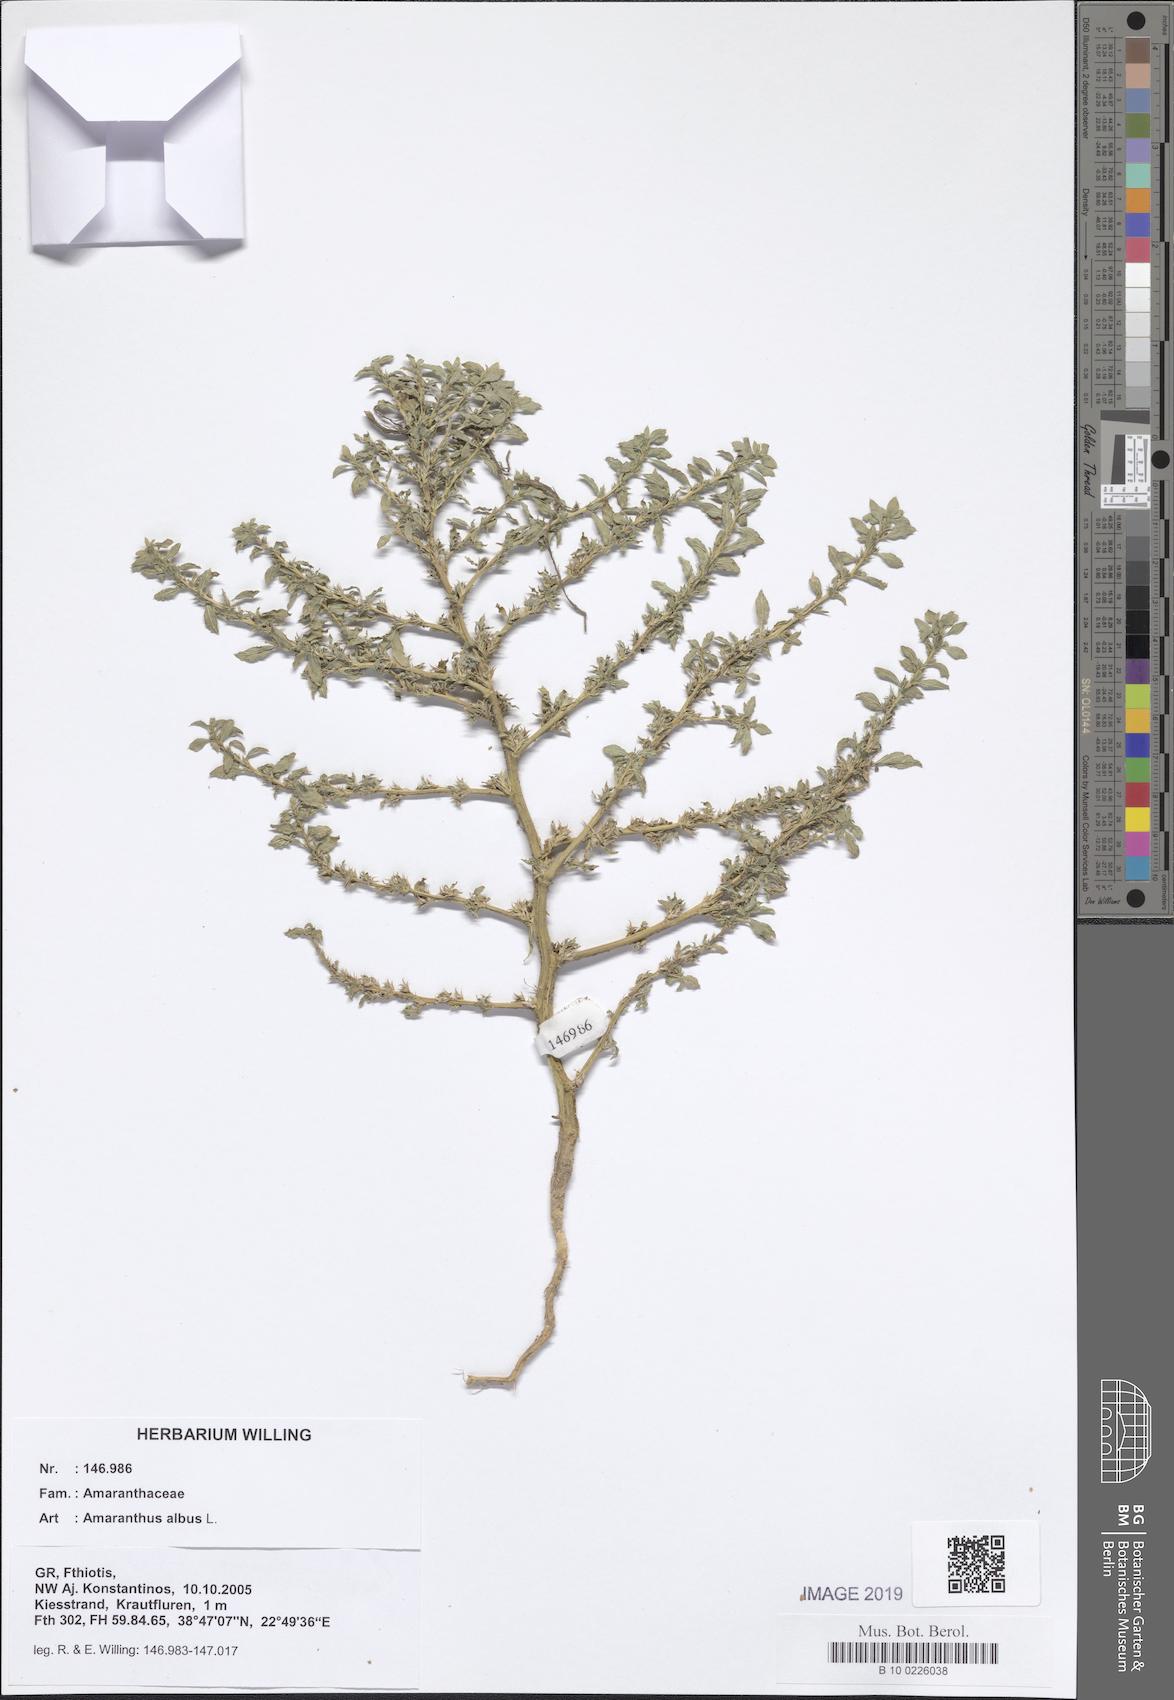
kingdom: Plantae
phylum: Tracheophyta
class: Magnoliopsida
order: Caryophyllales
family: Amaranthaceae
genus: Amaranthus
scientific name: Amaranthus albus
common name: White pigweed
